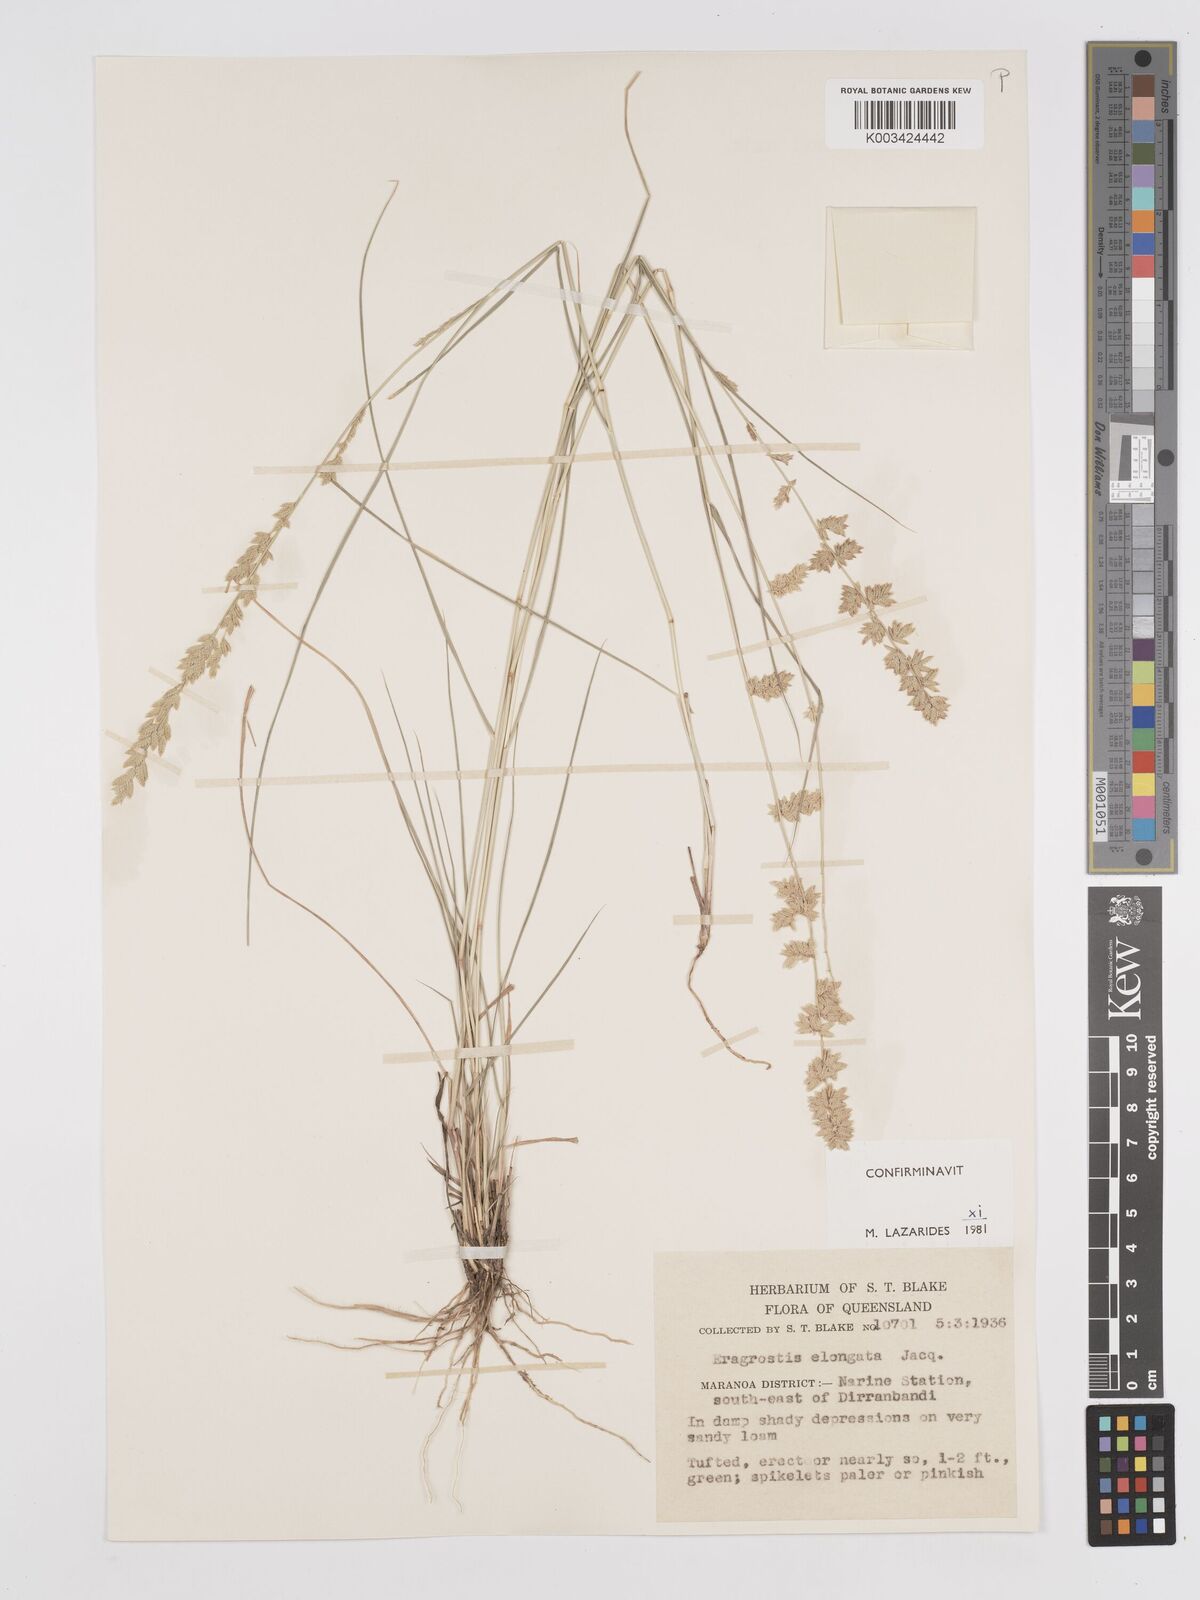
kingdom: Plantae
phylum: Tracheophyta
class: Liliopsida
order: Poales
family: Poaceae
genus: Eragrostis
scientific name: Eragrostis elongata
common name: Long lovegrass
